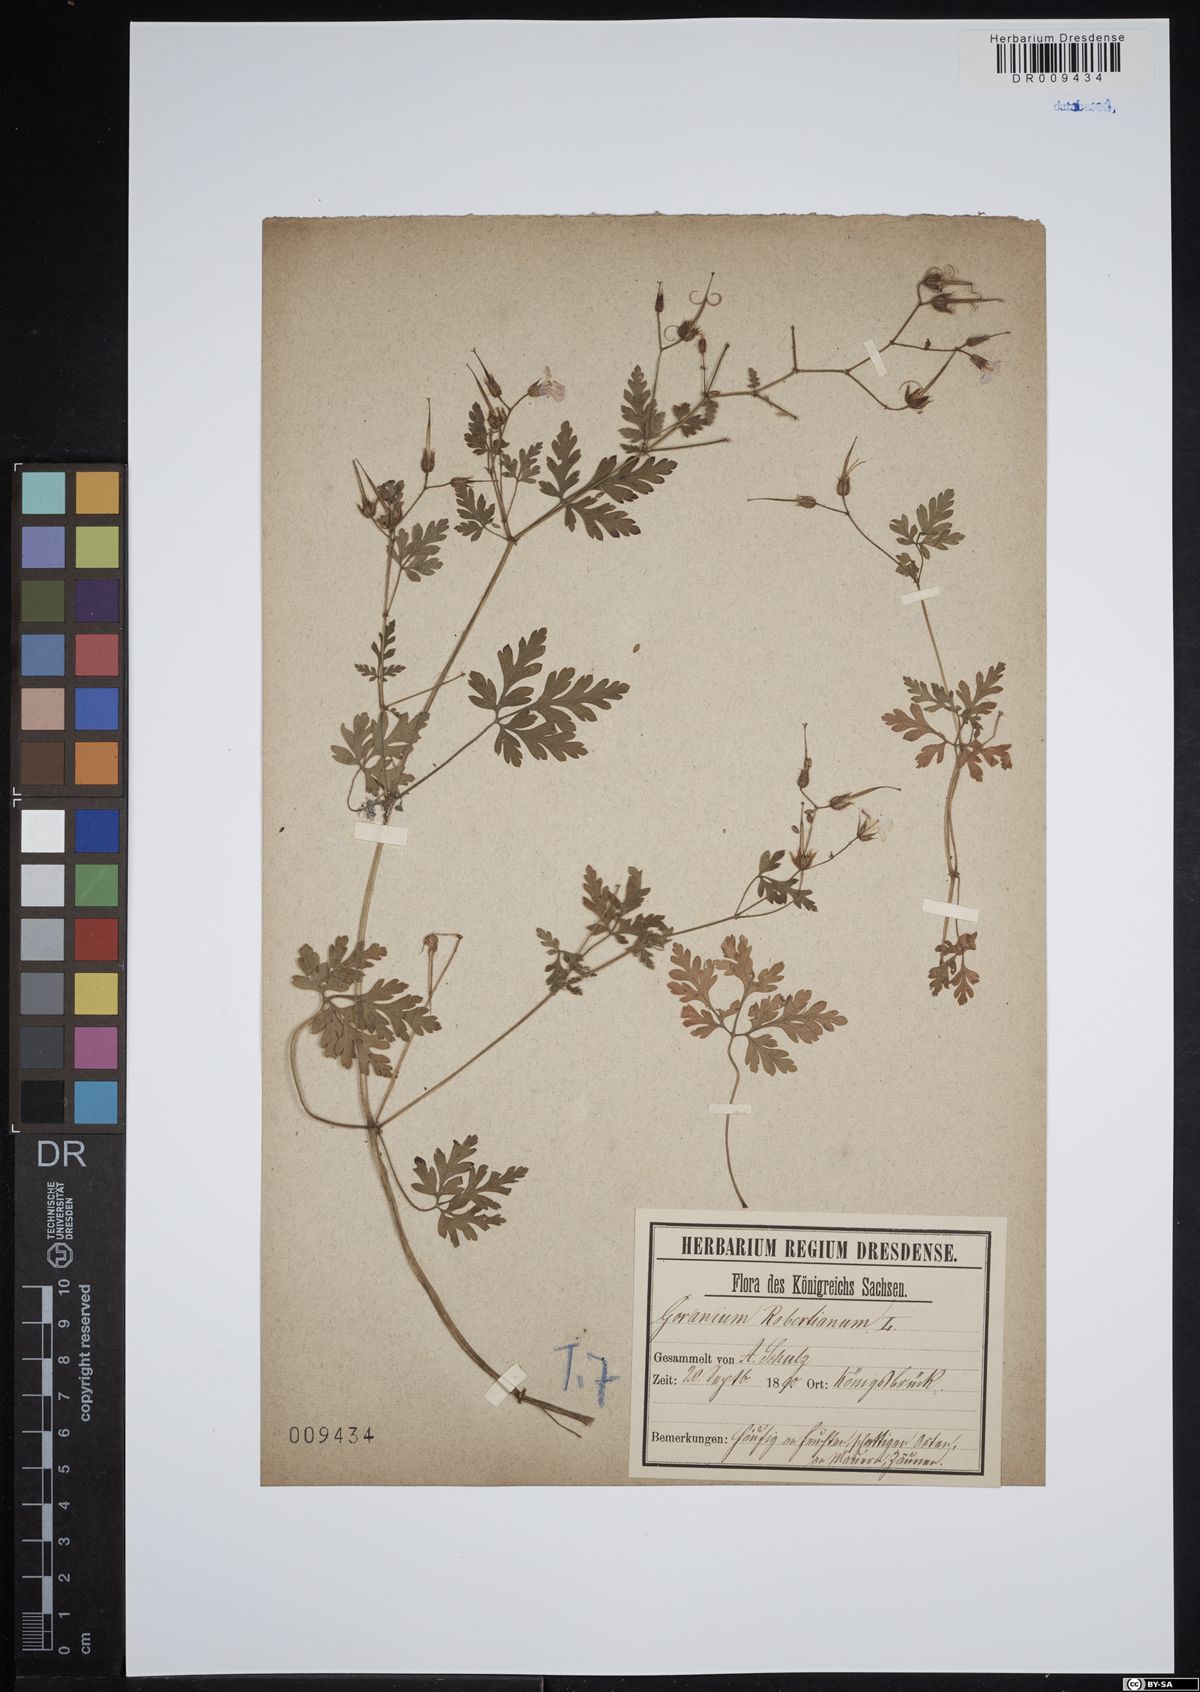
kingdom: Plantae
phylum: Tracheophyta
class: Magnoliopsida
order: Geraniales
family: Geraniaceae
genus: Geranium
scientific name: Geranium robertianum
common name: Herb-robert
